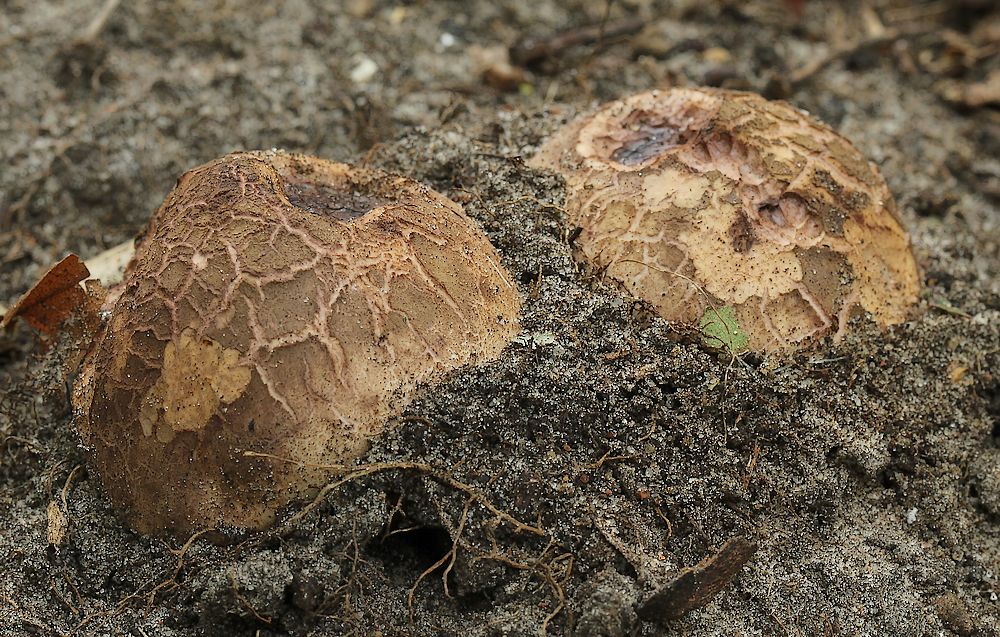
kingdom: Fungi
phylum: Basidiomycota
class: Agaricomycetes
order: Geastrales
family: Geastraceae
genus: Geastrum
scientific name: Geastrum melanocephalum
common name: håret stjernebold
